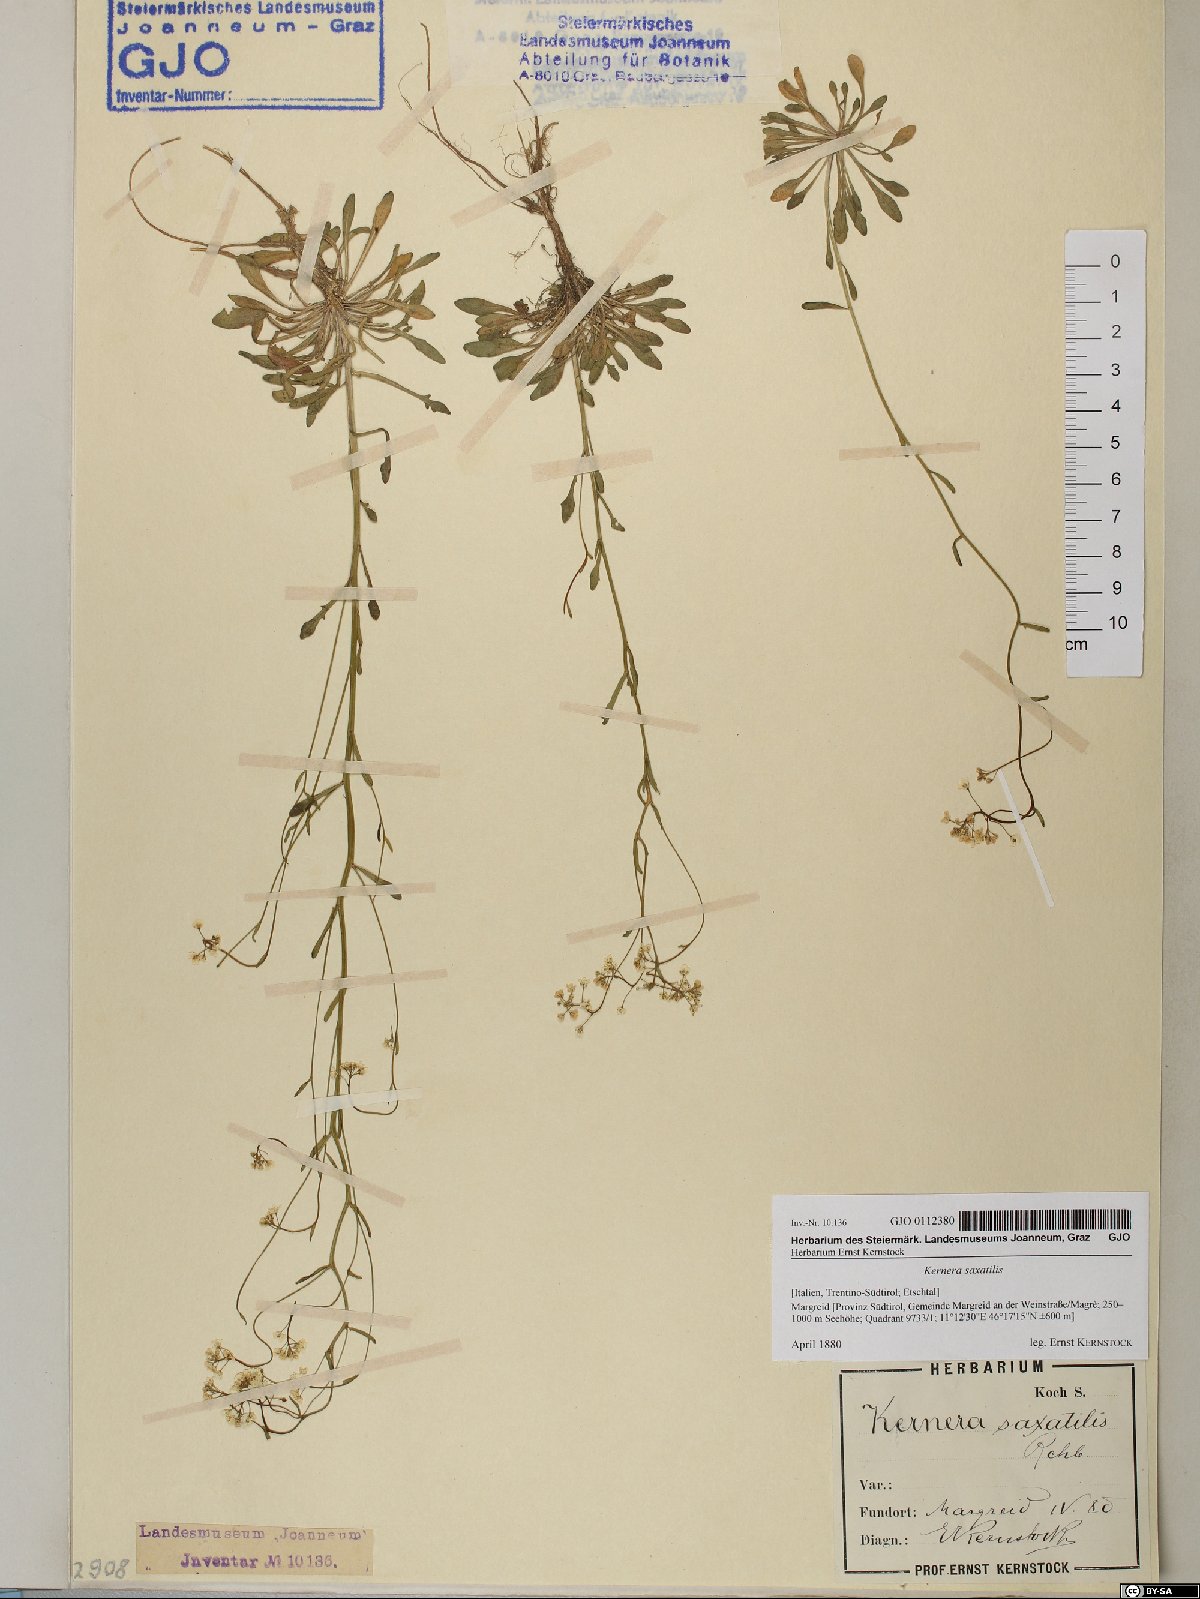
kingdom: Plantae
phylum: Tracheophyta
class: Magnoliopsida
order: Brassicales
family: Brassicaceae
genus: Kernera
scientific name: Kernera saxatilis
